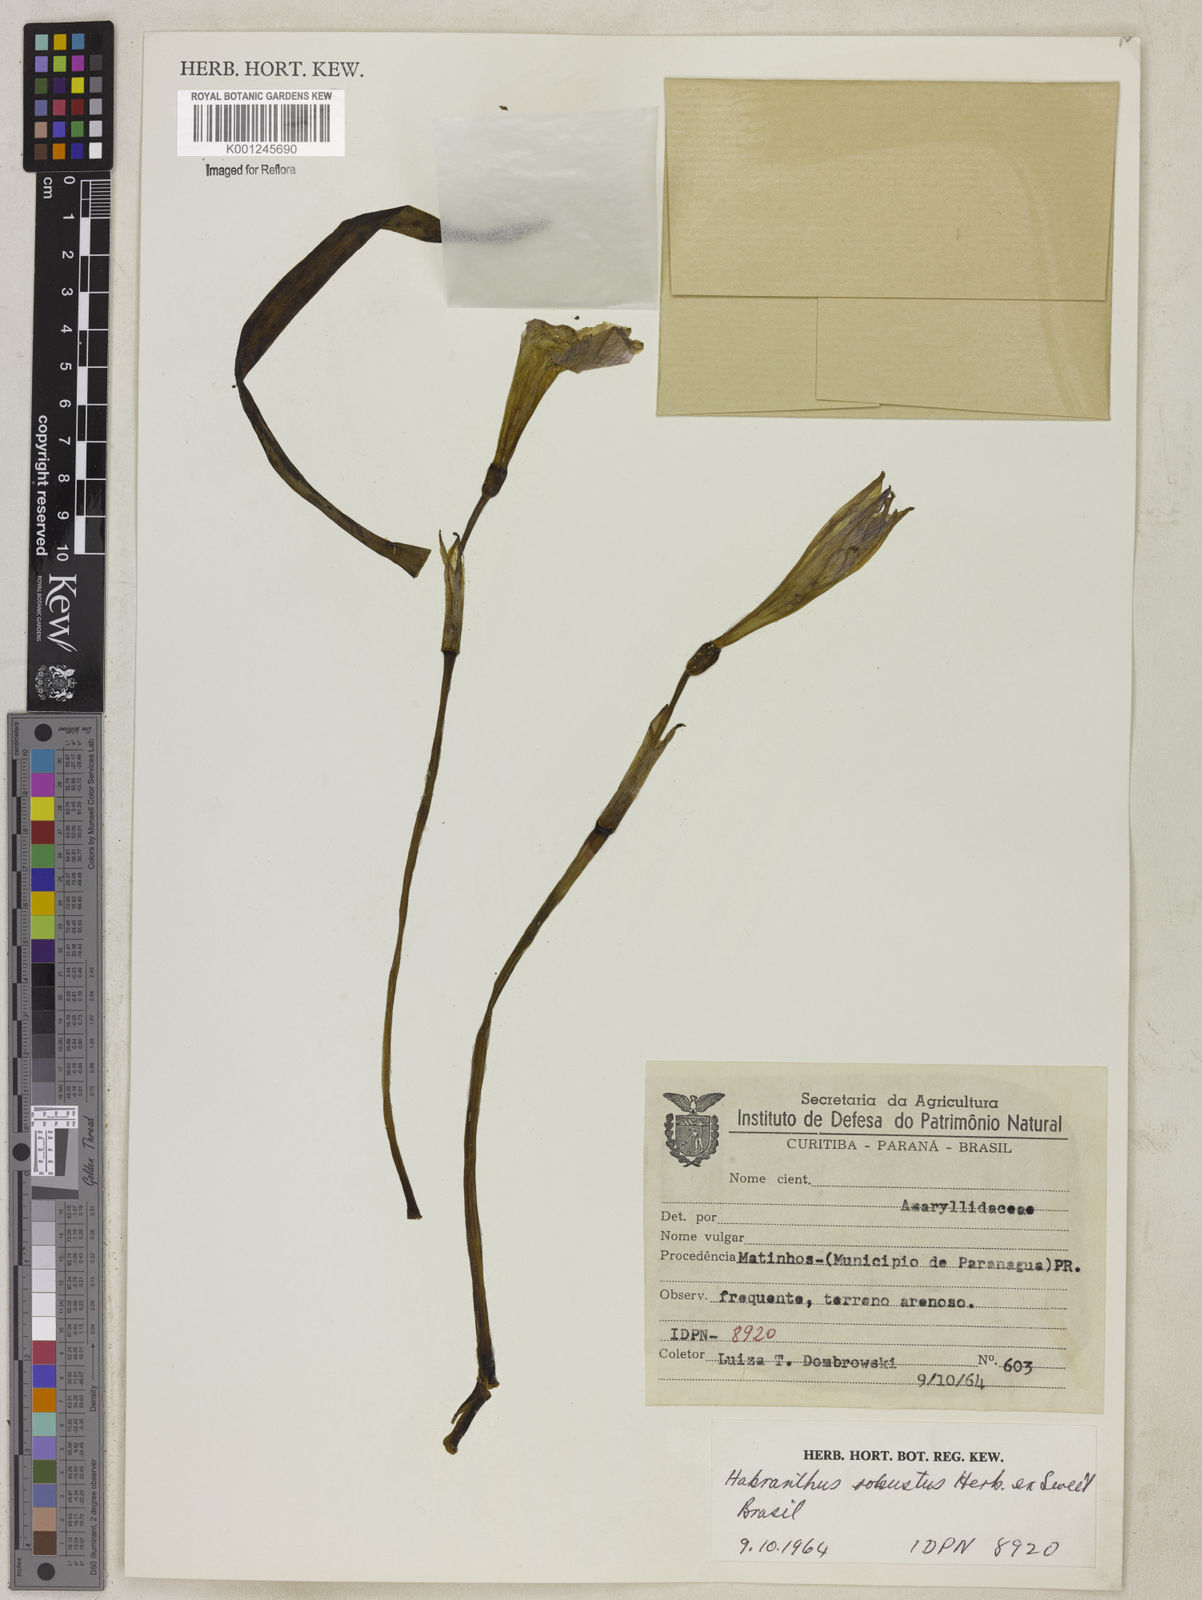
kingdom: Plantae
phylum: Tracheophyta
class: Liliopsida
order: Asparagales
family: Amaryllidaceae
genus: Zephyranthes
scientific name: Zephyranthes robusta
